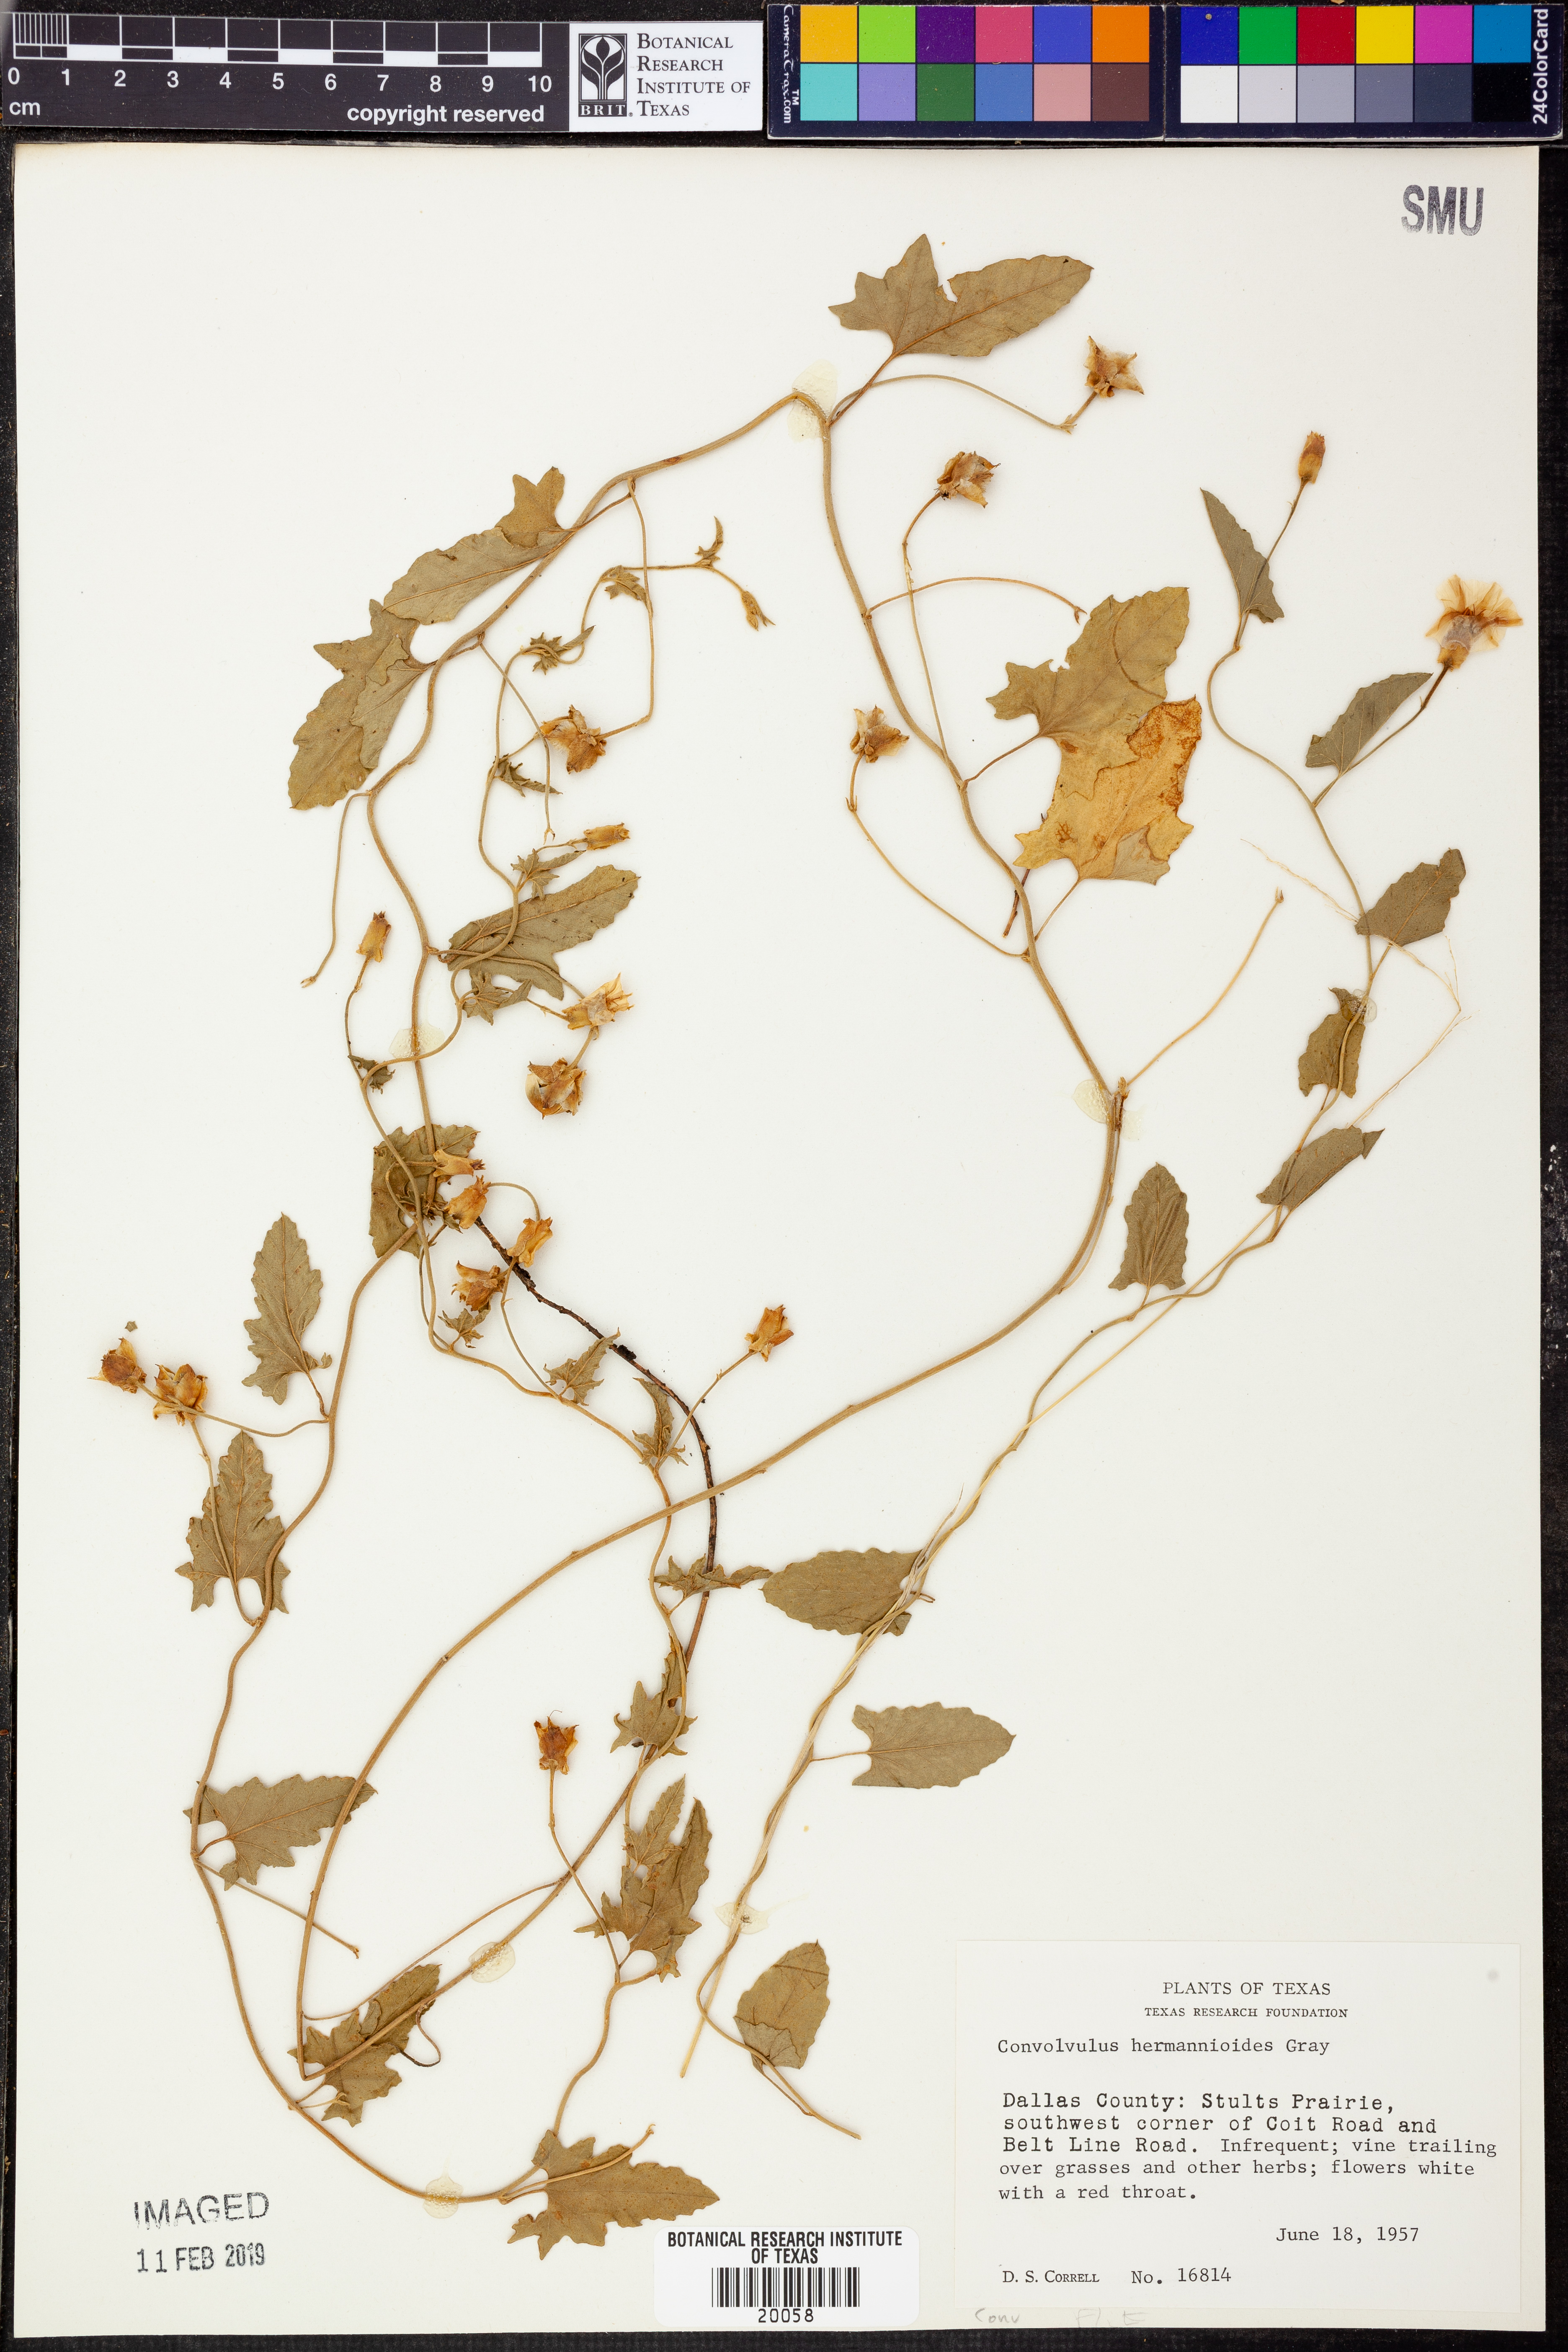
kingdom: Plantae
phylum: Tracheophyta
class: Magnoliopsida
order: Solanales
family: Convolvulaceae
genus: Convolvulus
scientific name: Convolvulus equitans
